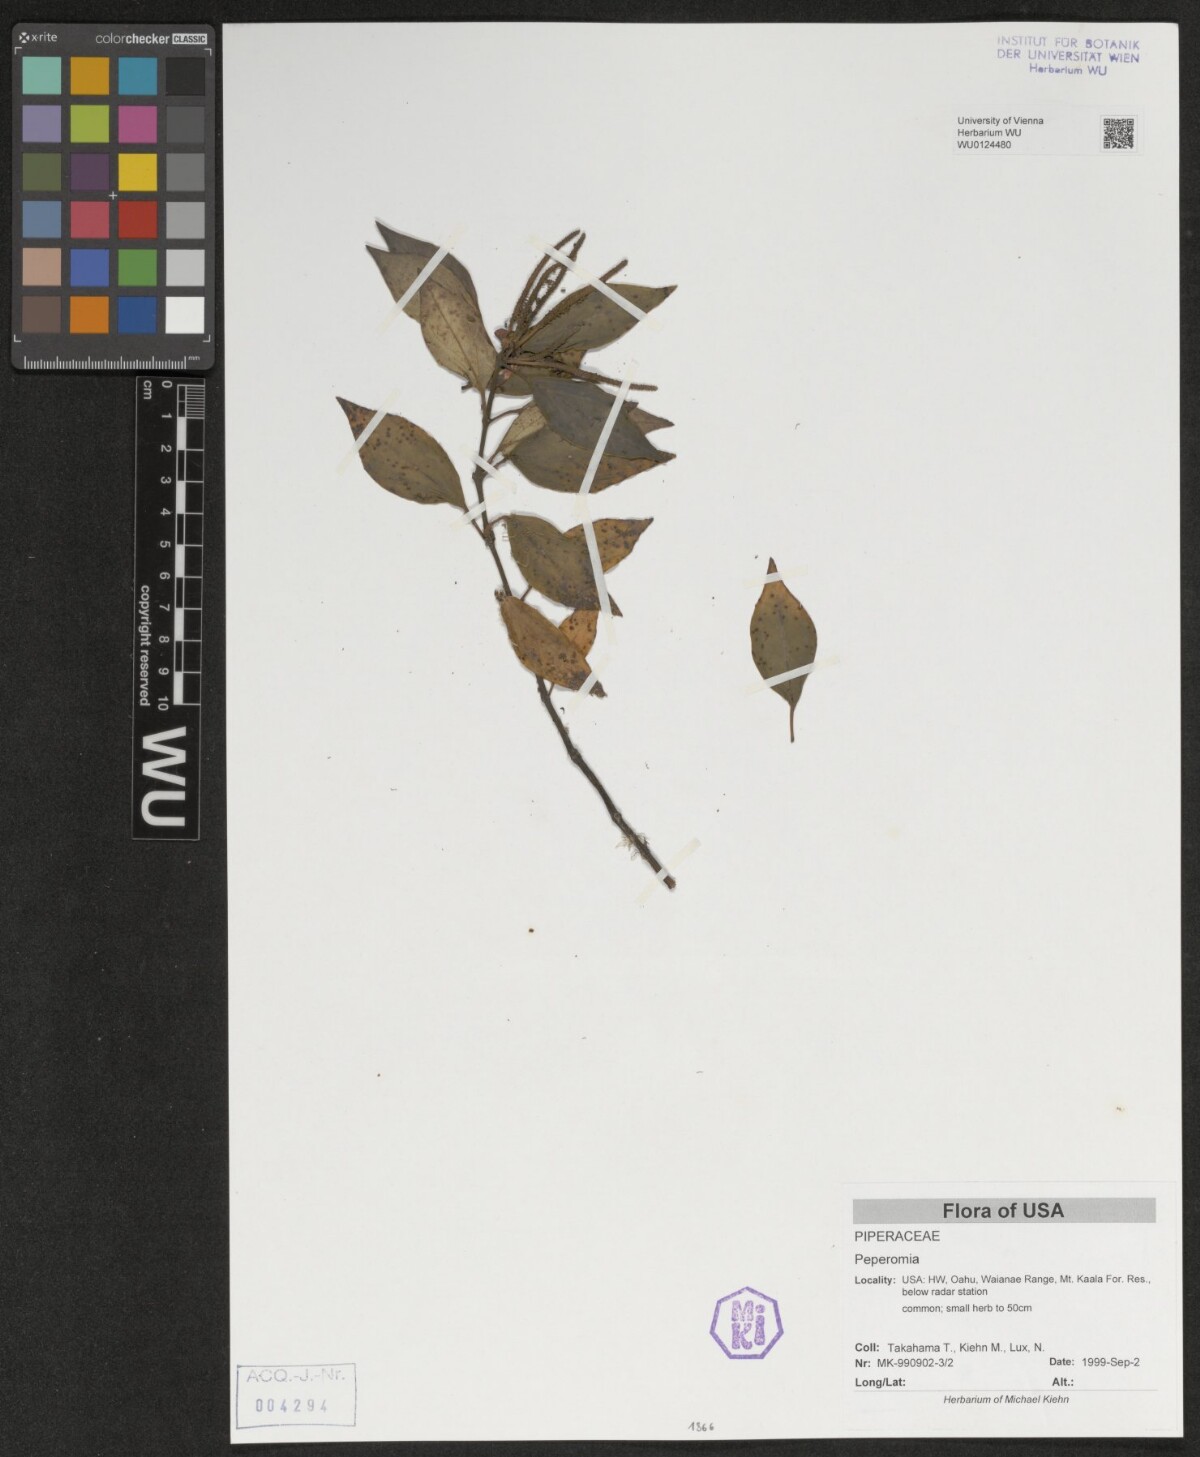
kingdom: Plantae
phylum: Tracheophyta
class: Magnoliopsida
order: Piperales
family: Piperaceae
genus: Peperomia
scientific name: Peperomia
